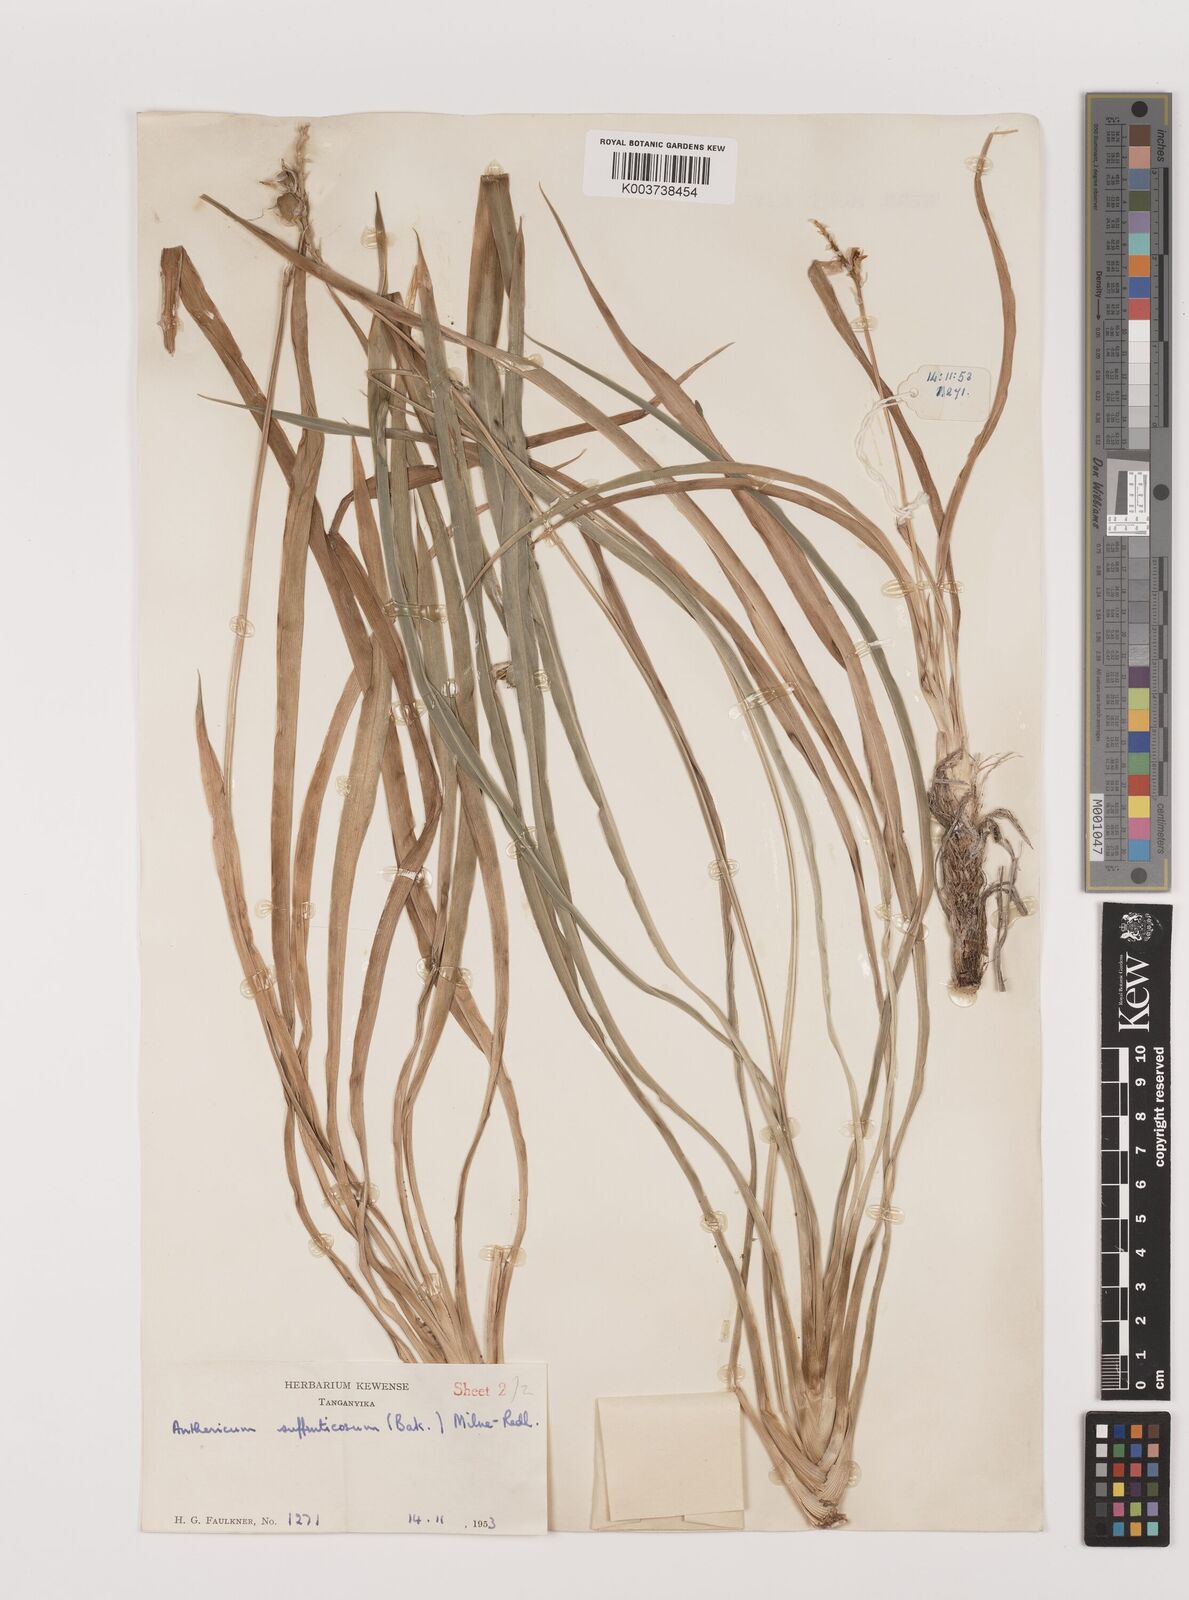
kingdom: Plantae
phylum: Tracheophyta
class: Liliopsida
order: Asparagales
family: Asparagaceae
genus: Chlorophytum
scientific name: Chlorophytum suffruticosum
